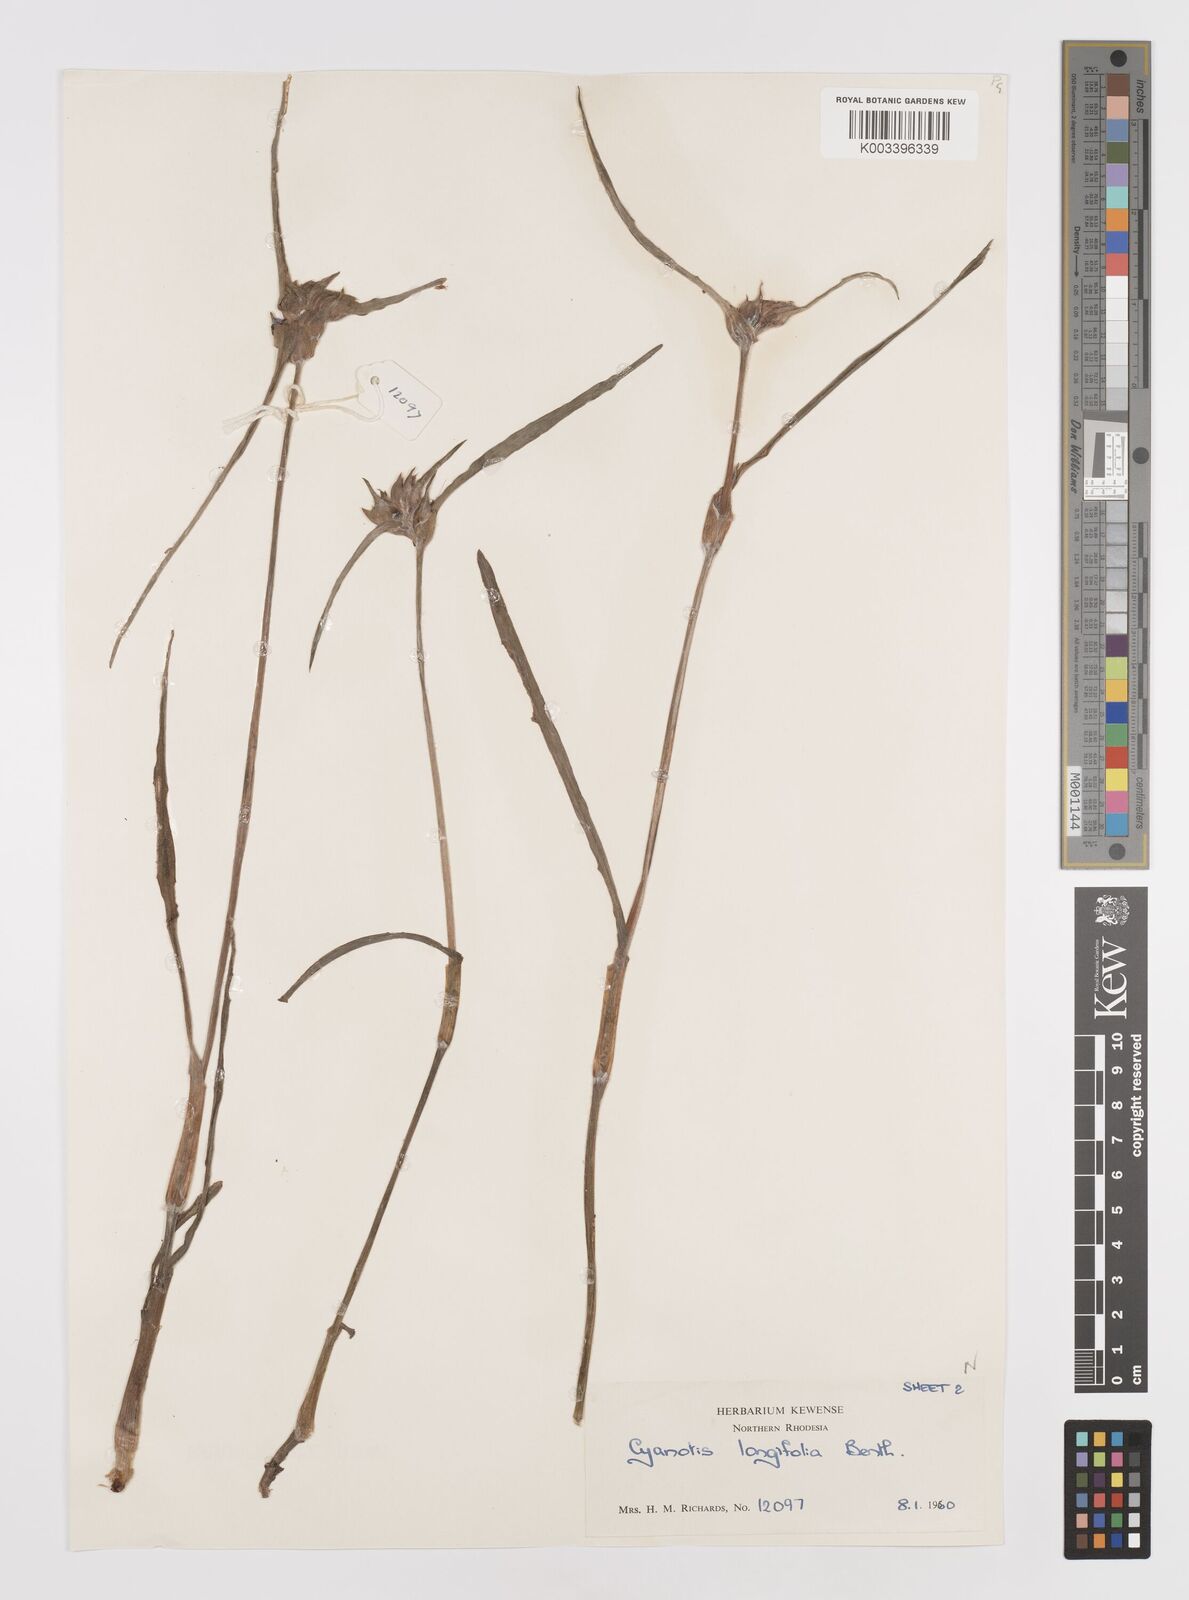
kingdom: Plantae
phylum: Tracheophyta
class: Liliopsida
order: Commelinales
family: Commelinaceae
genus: Cyanotis
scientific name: Cyanotis longifolia
